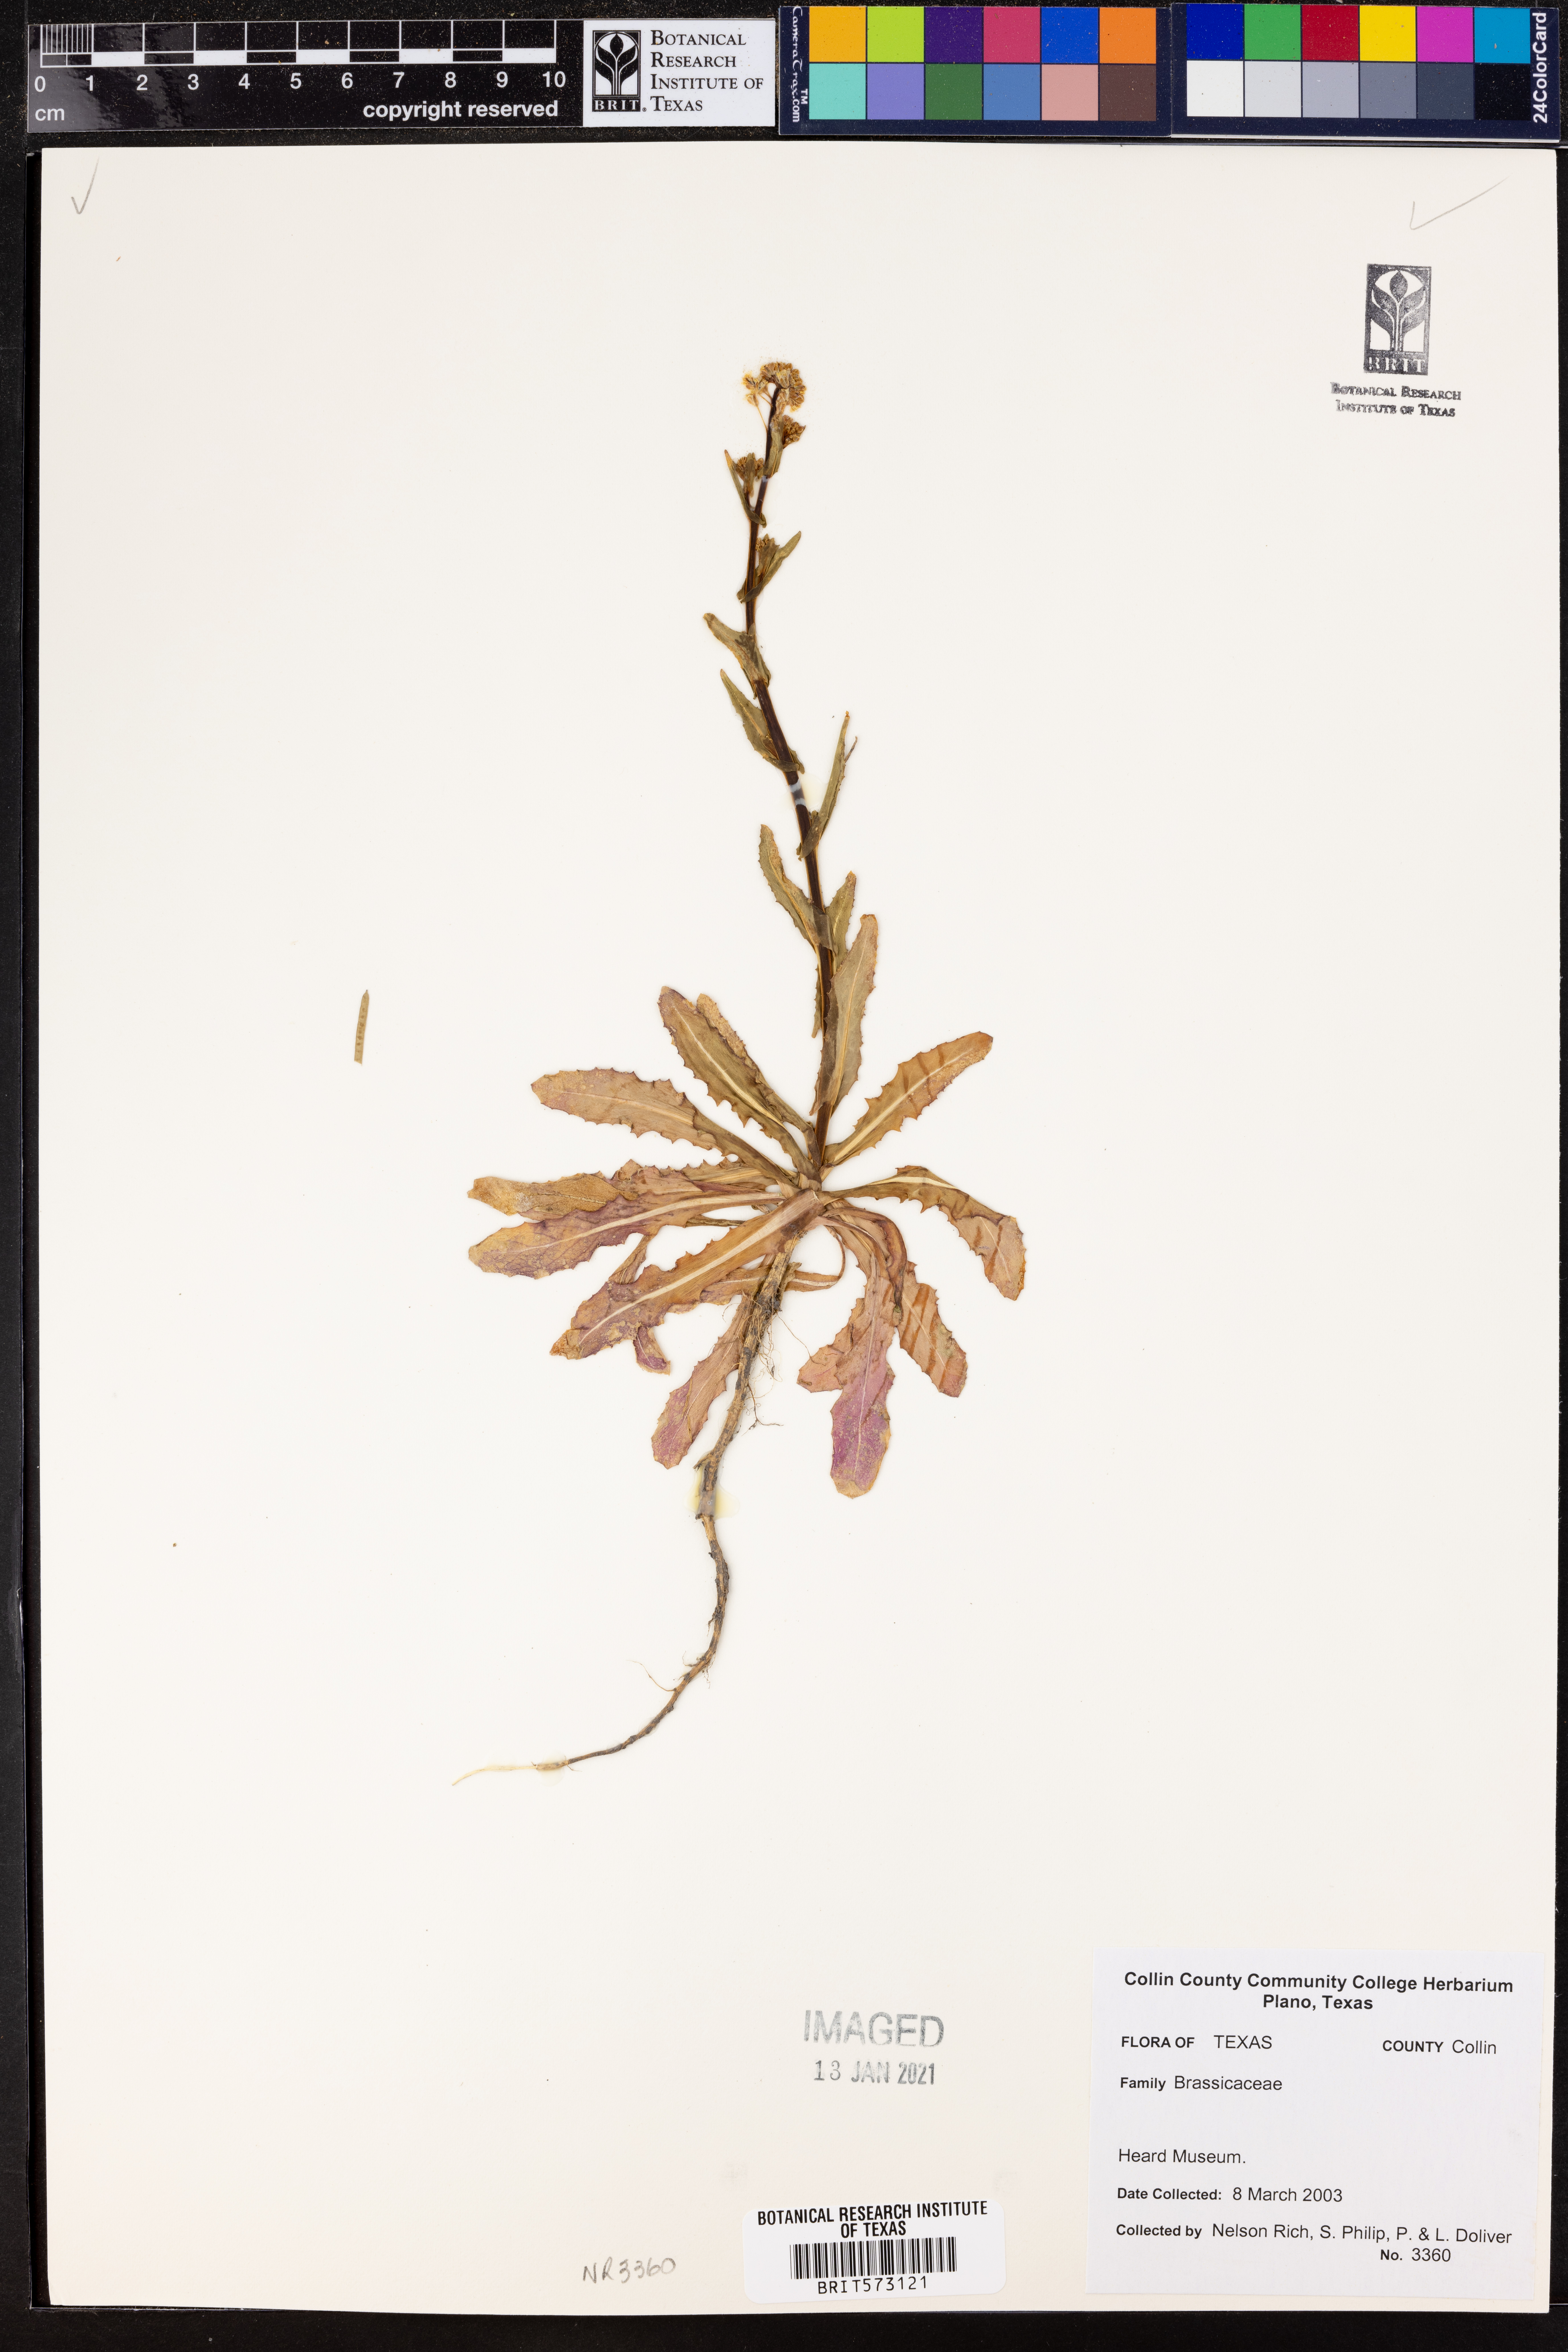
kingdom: Plantae
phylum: Tracheophyta
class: Magnoliopsida
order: Brassicales
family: Brassicaceae
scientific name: Brassicaceae
